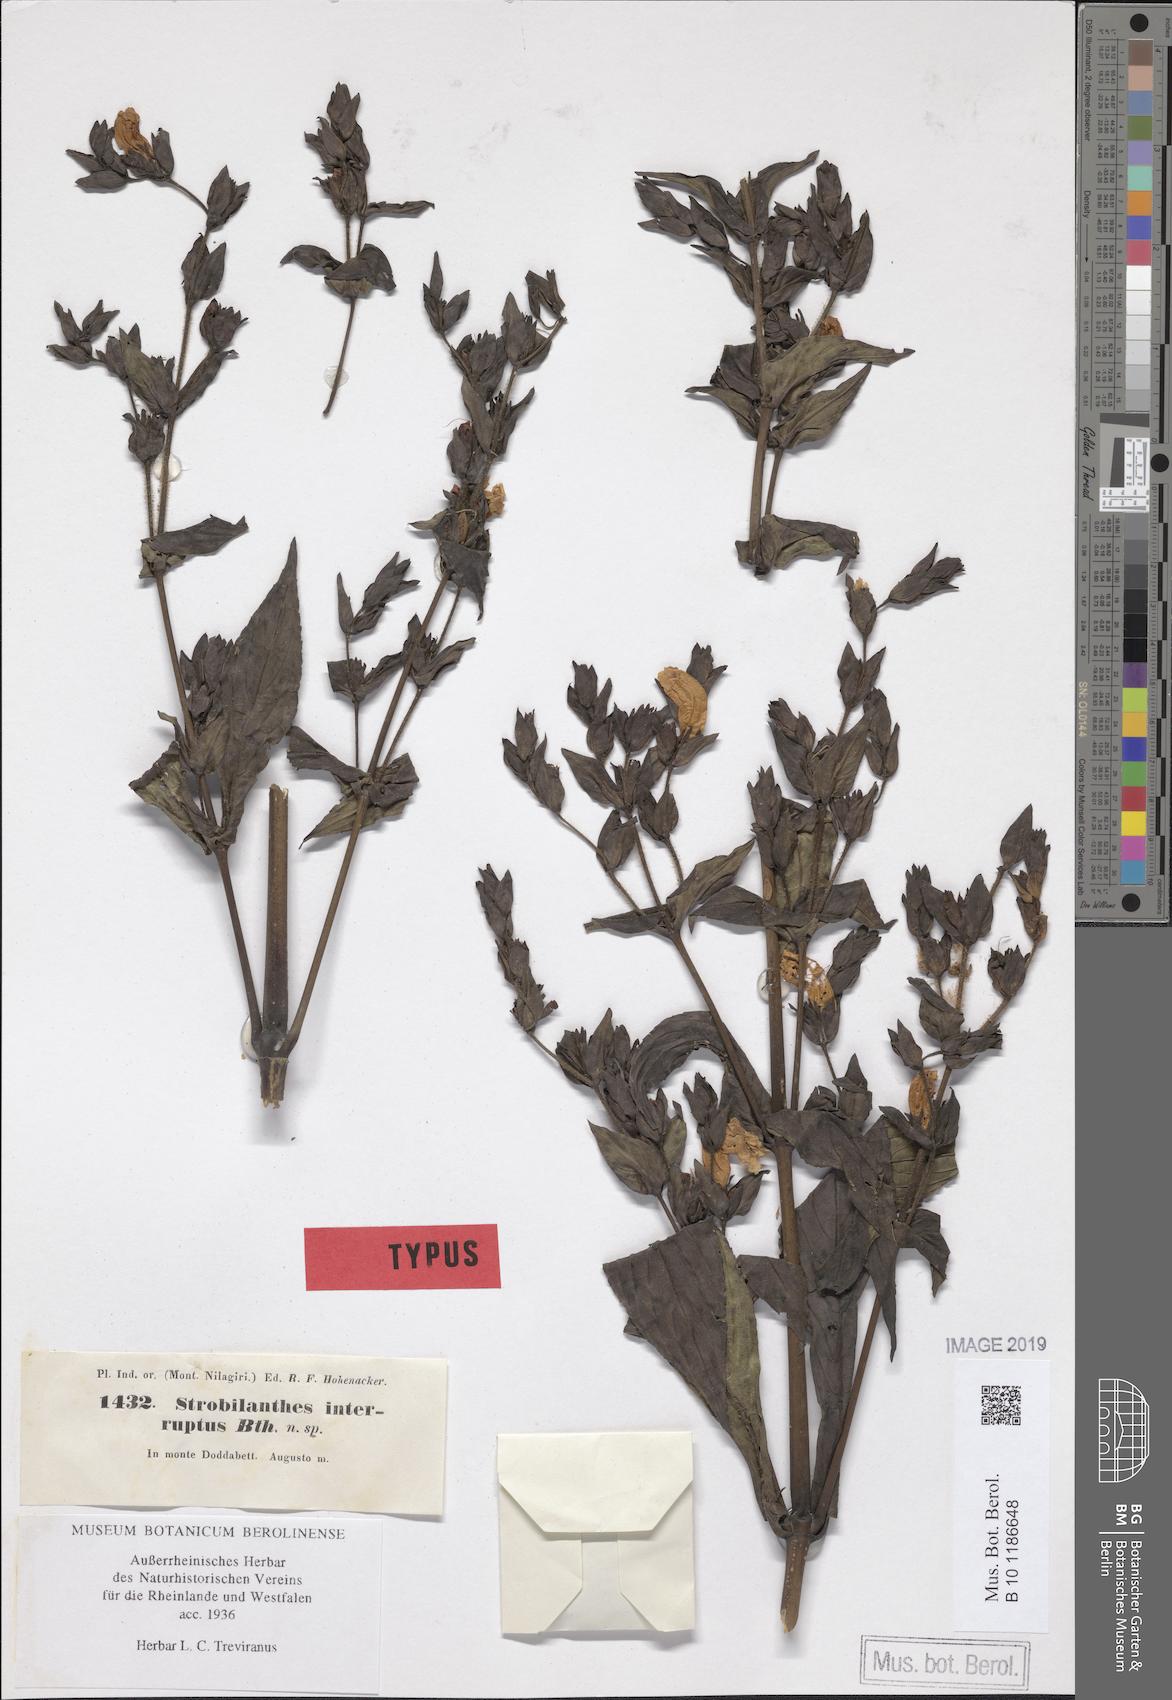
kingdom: Plantae
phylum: Tracheophyta
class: Magnoliopsida
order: Lamiales
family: Acanthaceae
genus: Strobilanthes
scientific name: Strobilanthes sexennis
